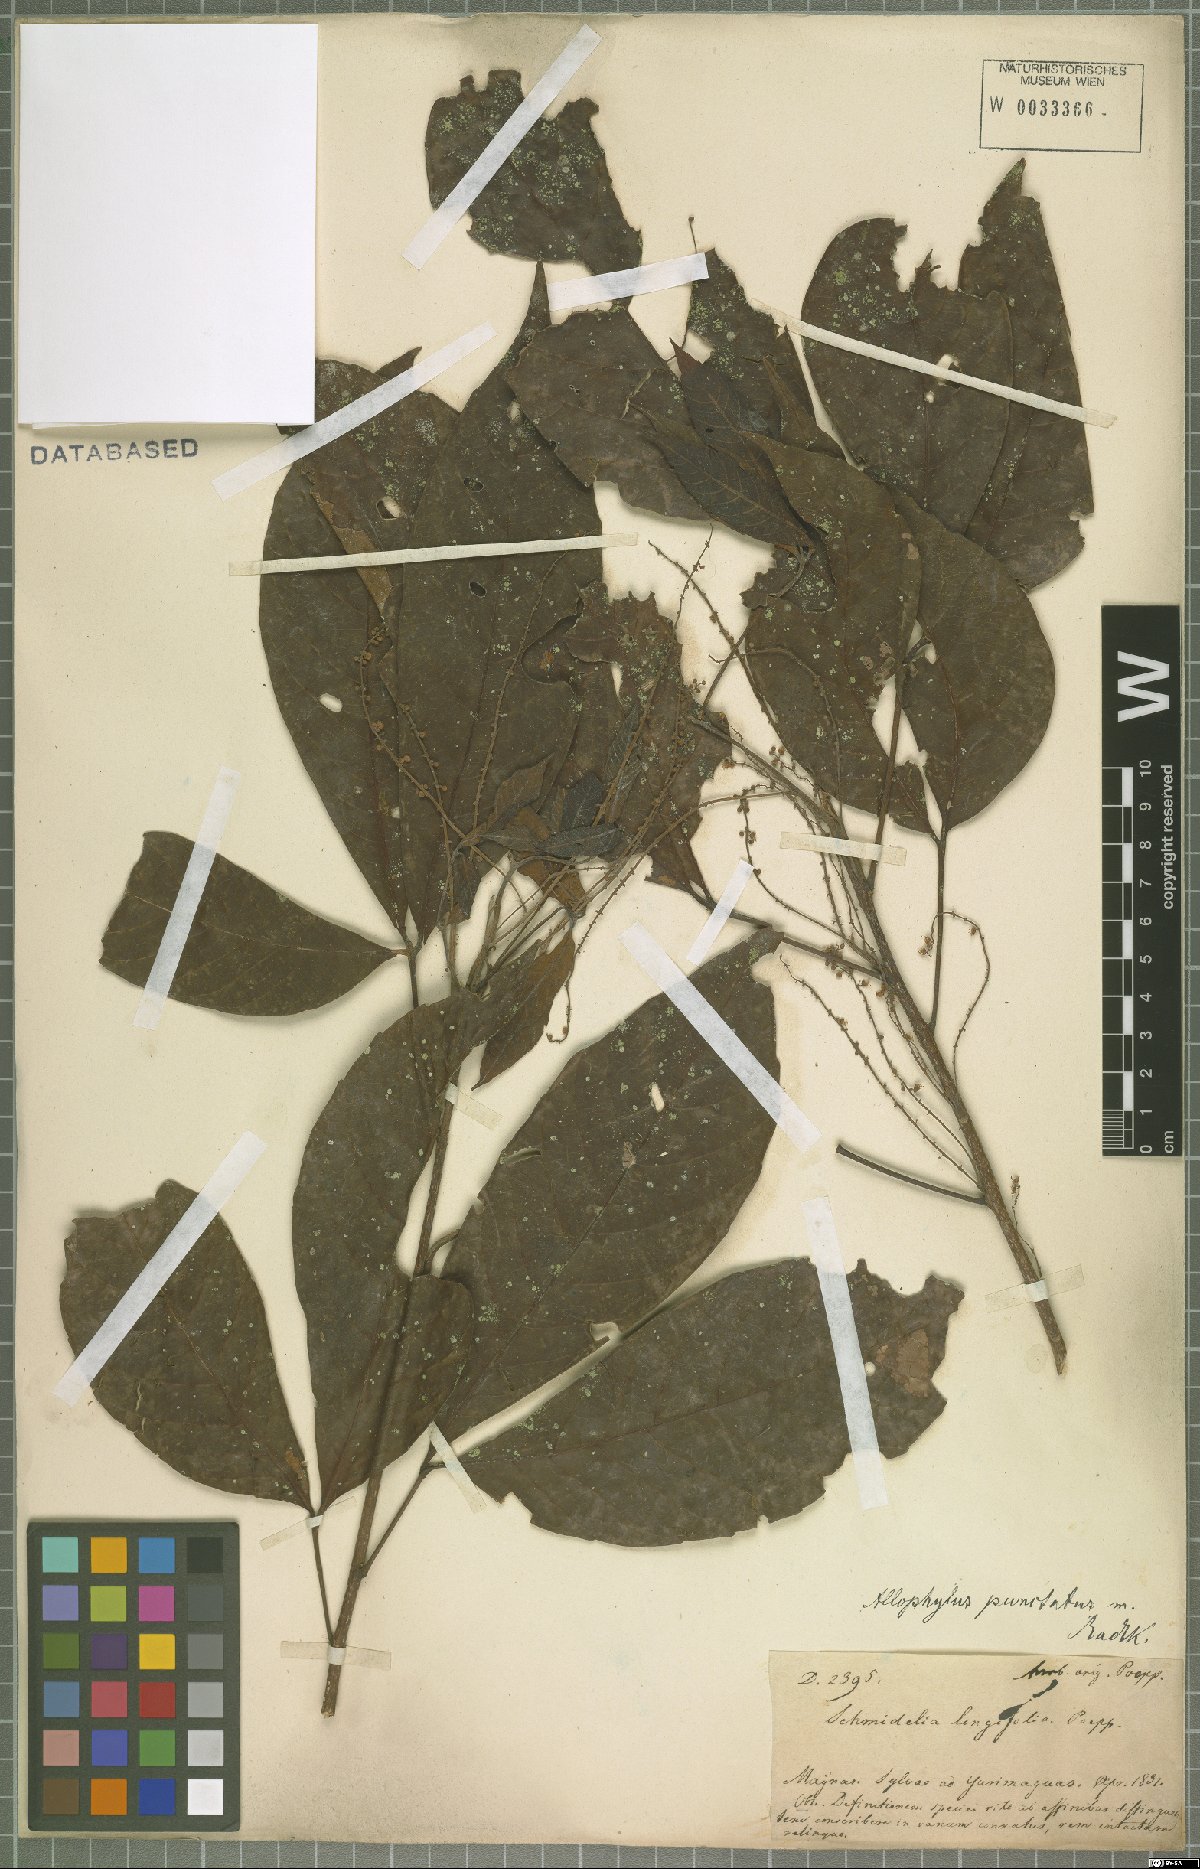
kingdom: Plantae
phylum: Tracheophyta
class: Magnoliopsida
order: Sapindales
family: Sapindaceae
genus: Allophylus
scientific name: Allophylus punctatus
